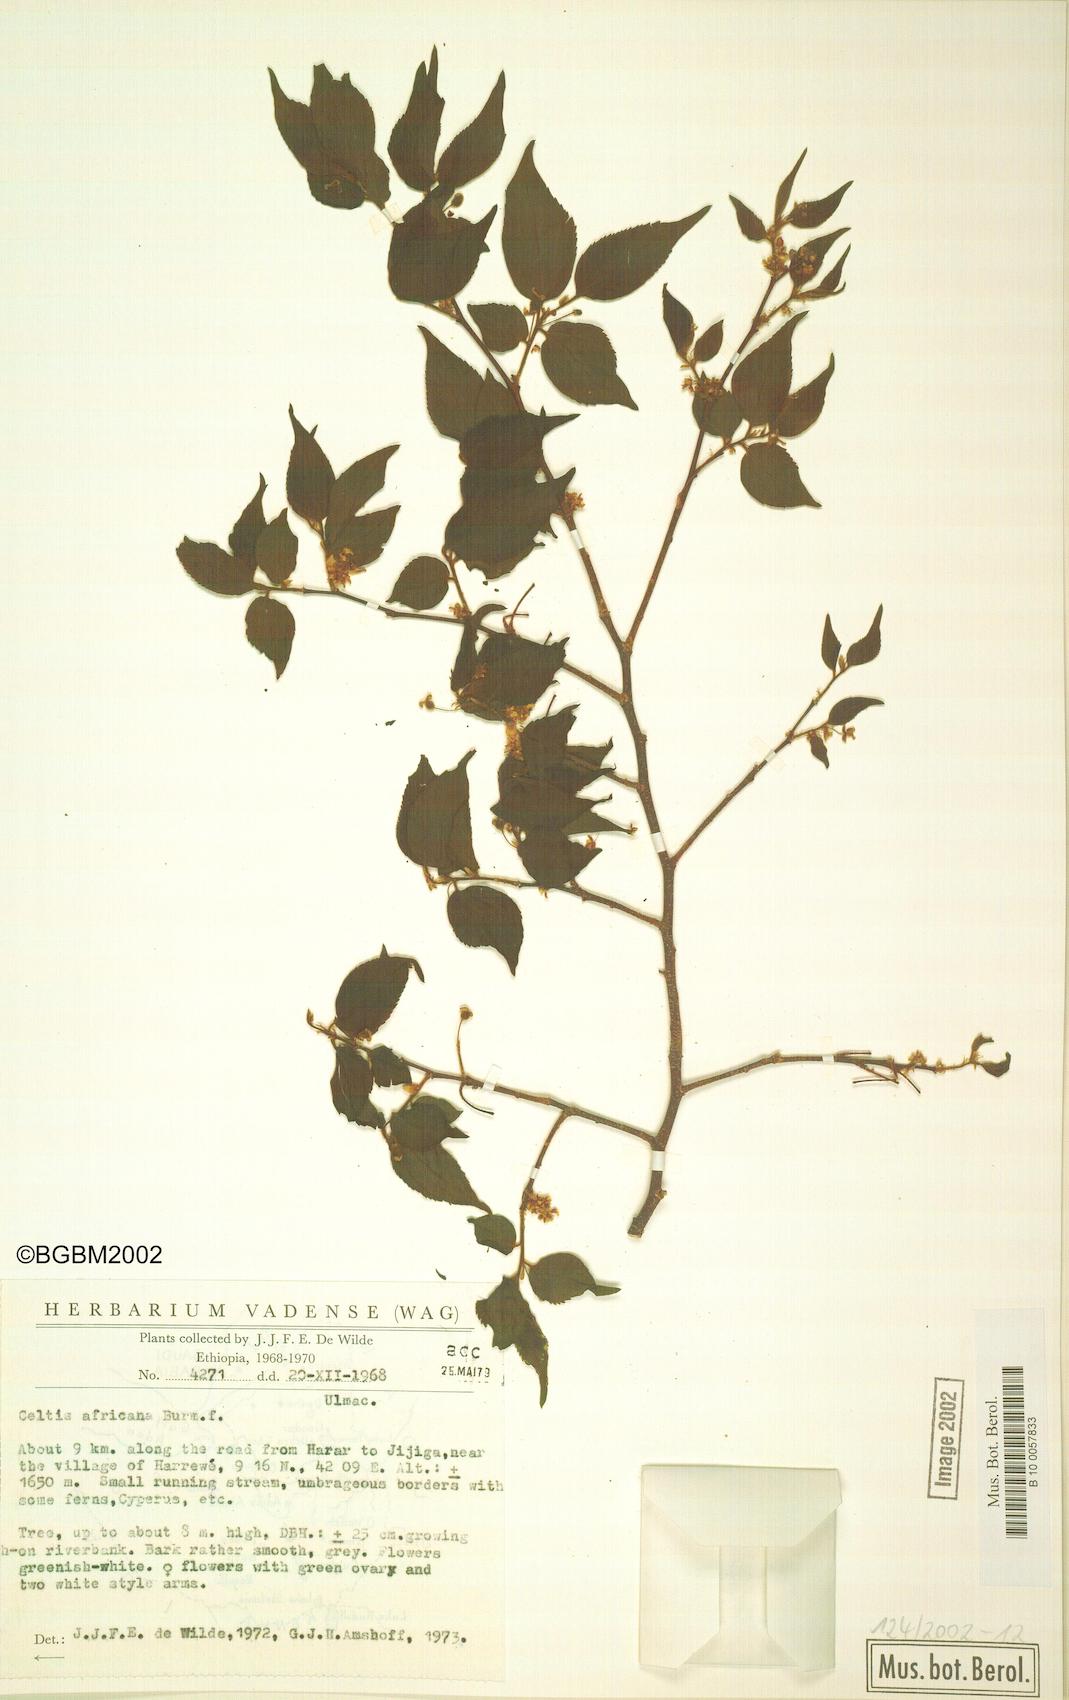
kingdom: Plantae
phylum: Tracheophyta
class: Magnoliopsida
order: Rosales
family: Cannabaceae
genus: Celtis
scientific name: Celtis africana
